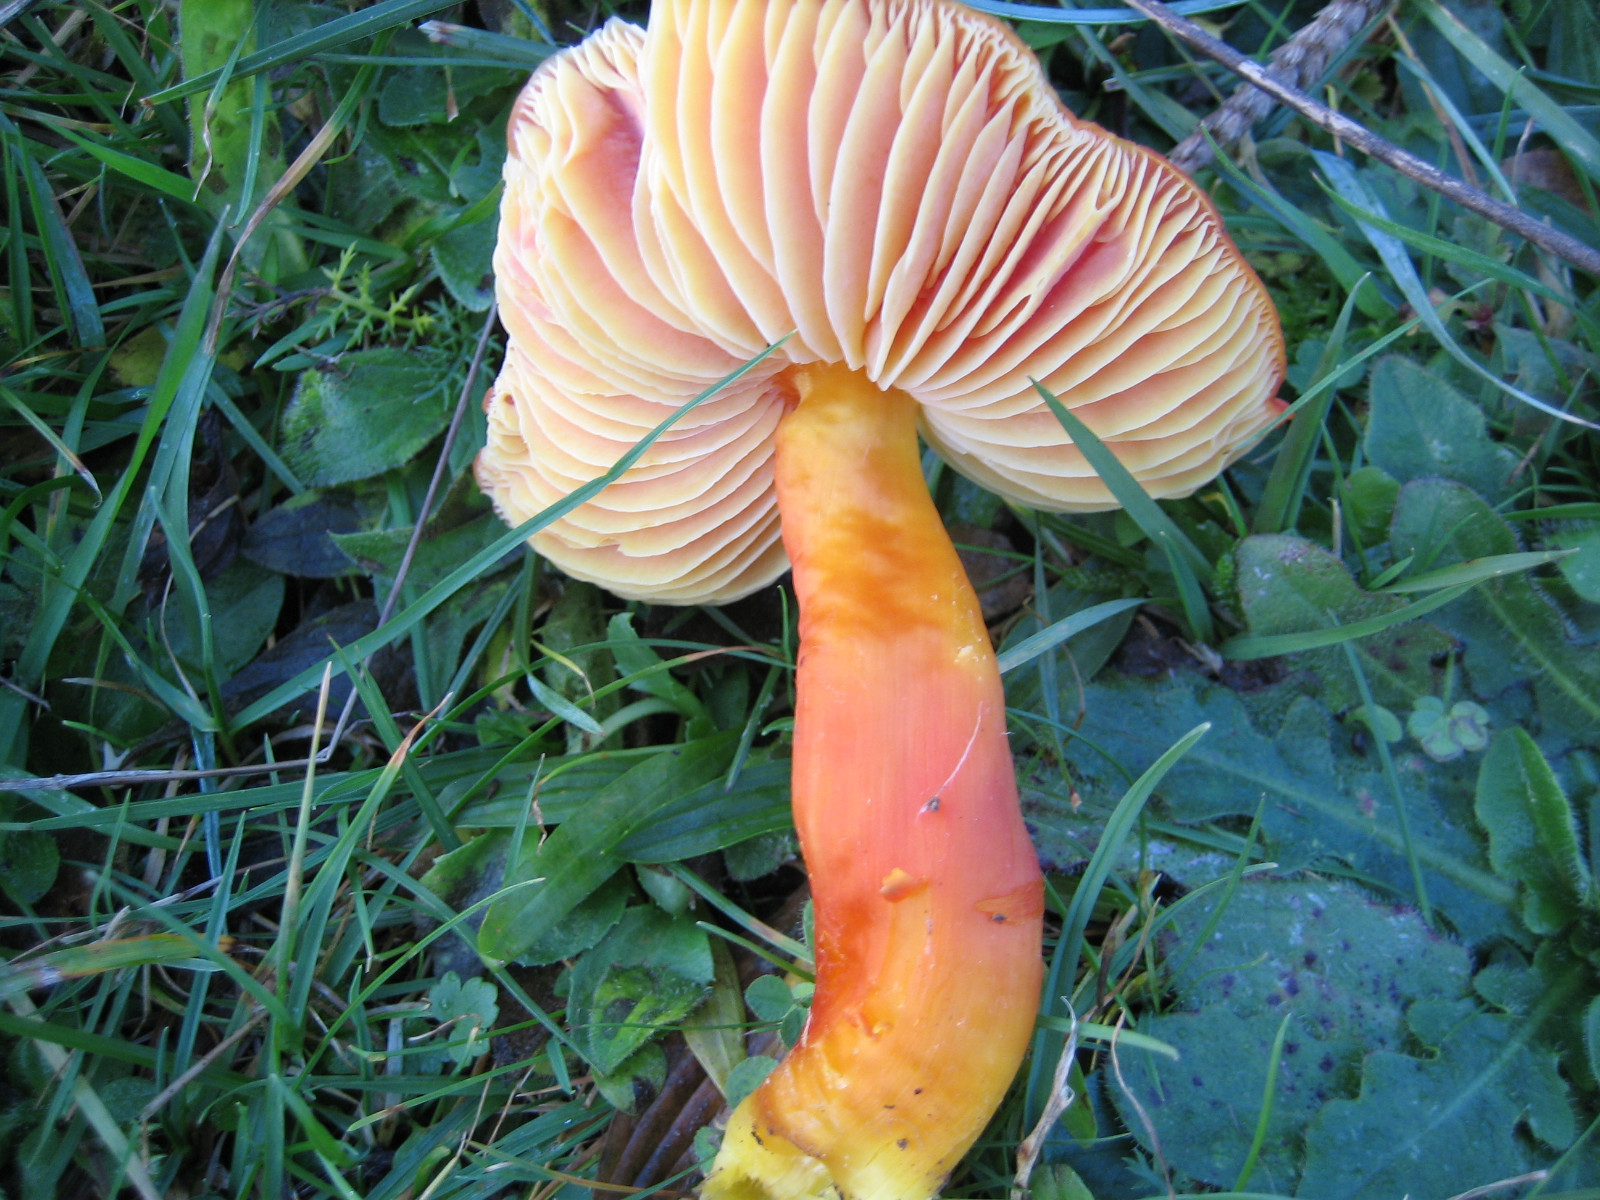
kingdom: Fungi
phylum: Basidiomycota
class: Agaricomycetes
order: Agaricales
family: Hygrophoraceae
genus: Hygrocybe
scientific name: Hygrocybe splendidissima
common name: knaldrød vokshat
